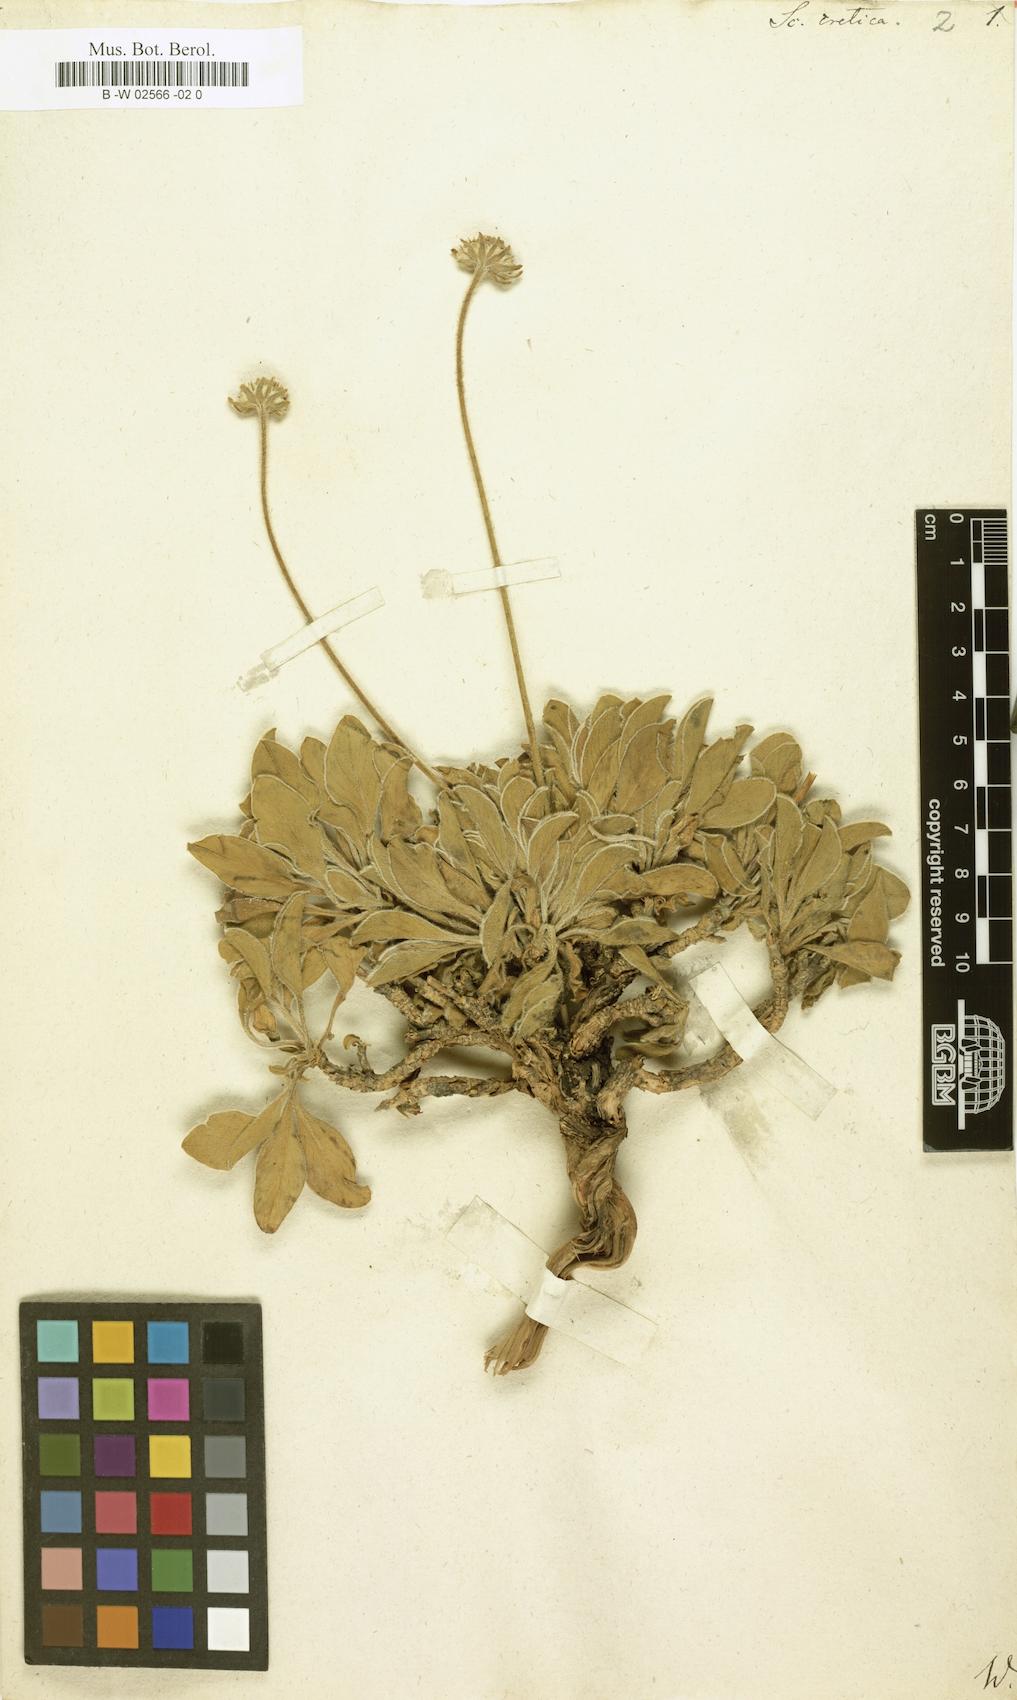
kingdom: Plantae
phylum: Tracheophyta
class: Magnoliopsida
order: Dipsacales
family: Caprifoliaceae
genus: Lomelosia
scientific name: Lomelosia cretica
